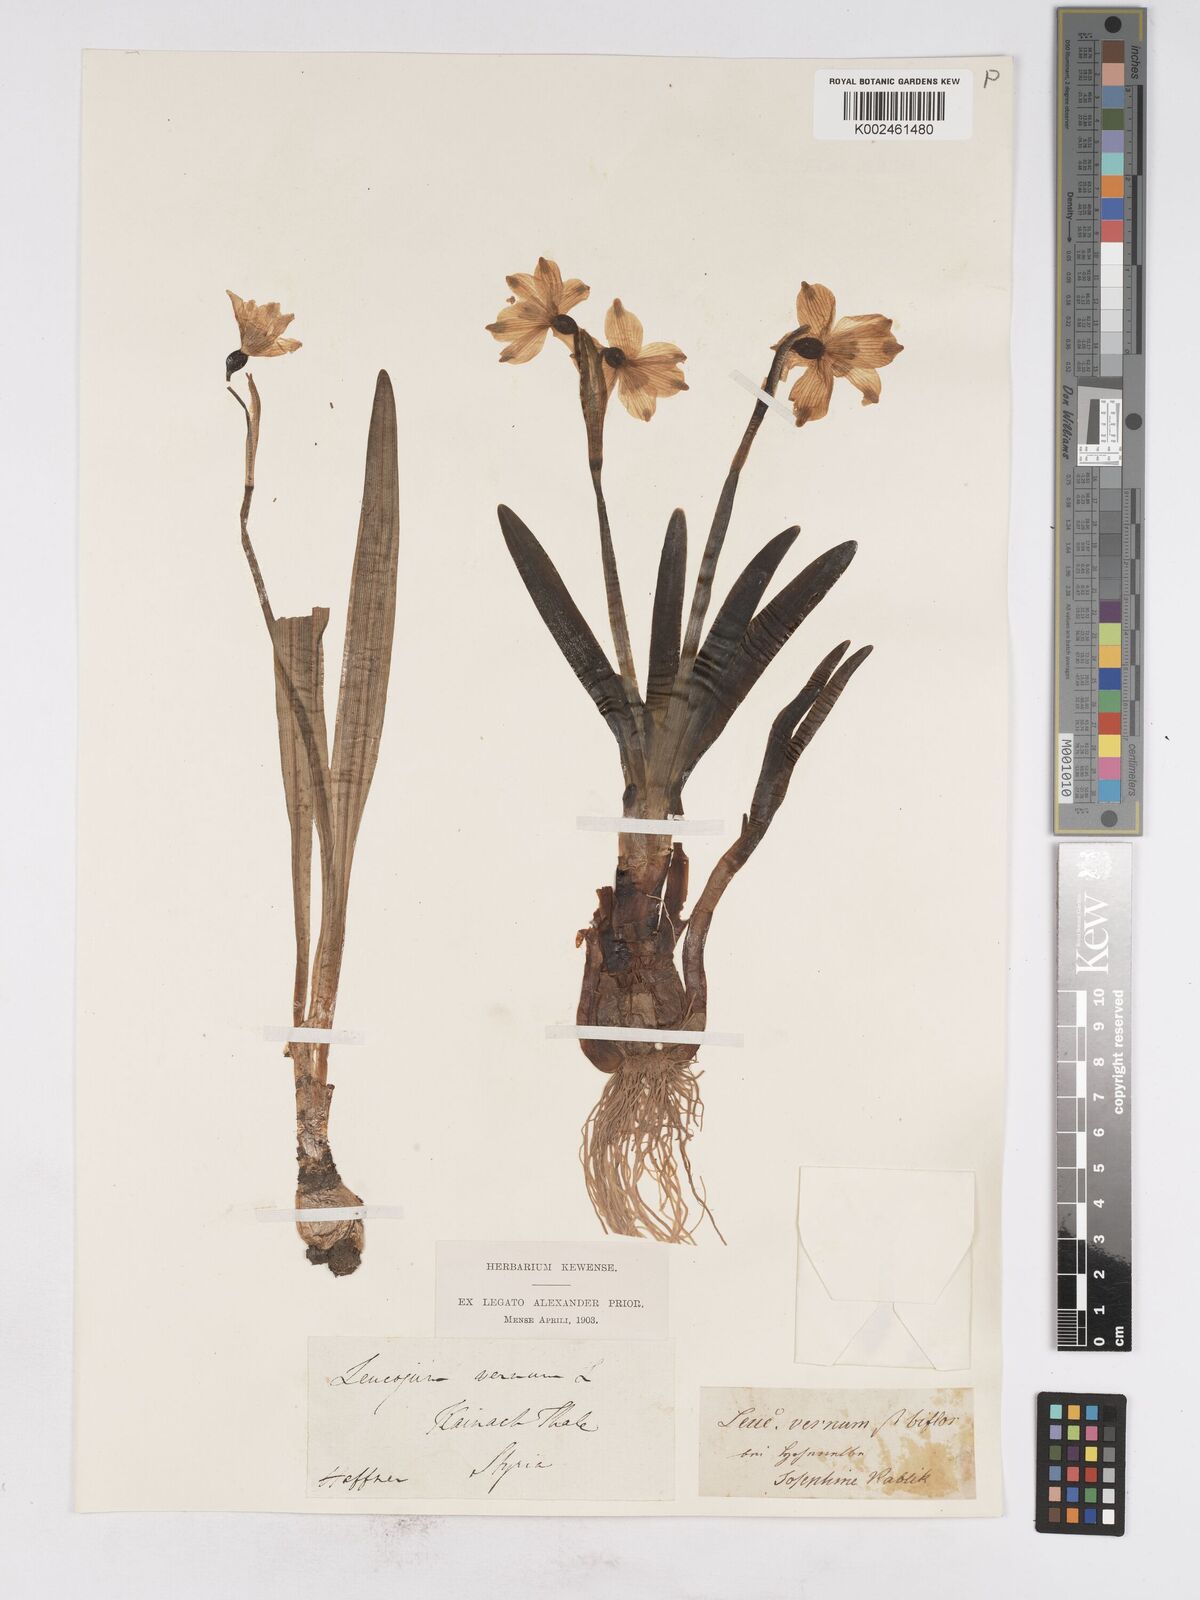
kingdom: Plantae
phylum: Tracheophyta
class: Liliopsida
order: Asparagales
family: Amaryllidaceae
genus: Leucojum
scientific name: Leucojum vernum
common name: Spring snowflake
